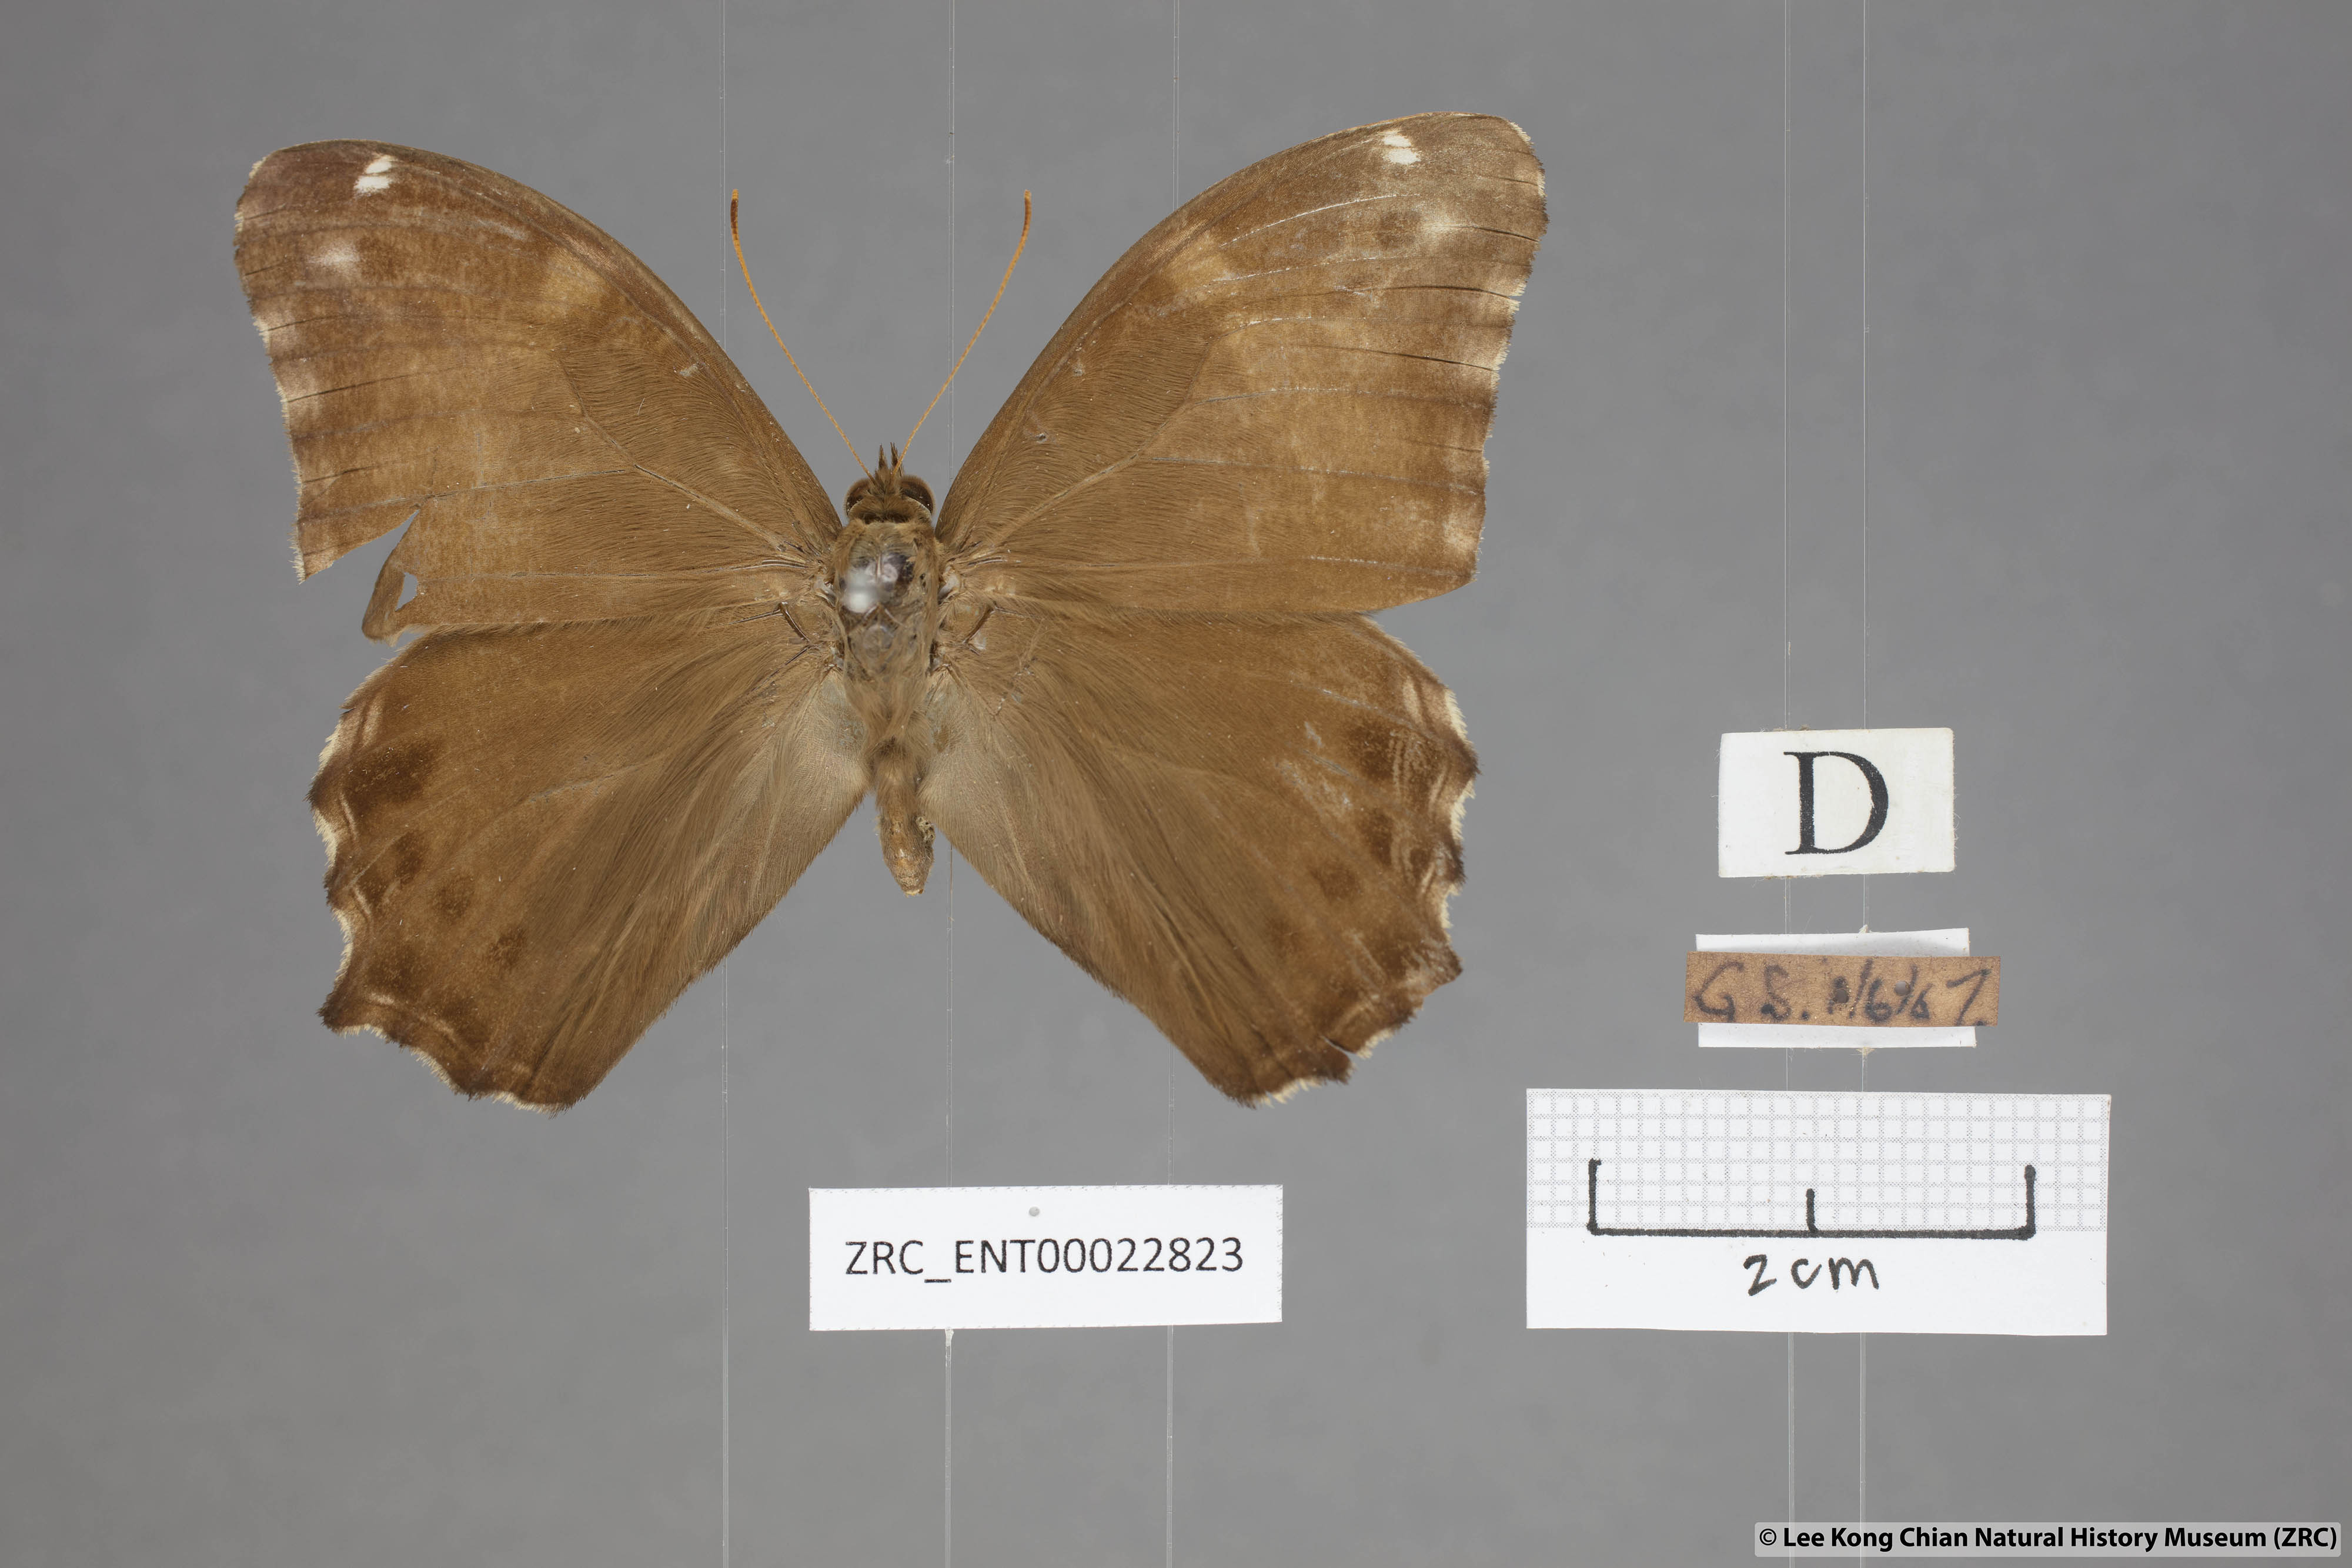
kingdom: Animalia
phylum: Arthropoda
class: Insecta
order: Lepidoptera
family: Nymphalidae
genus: Lethe
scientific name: Lethe europa
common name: Bamboo treebrown
